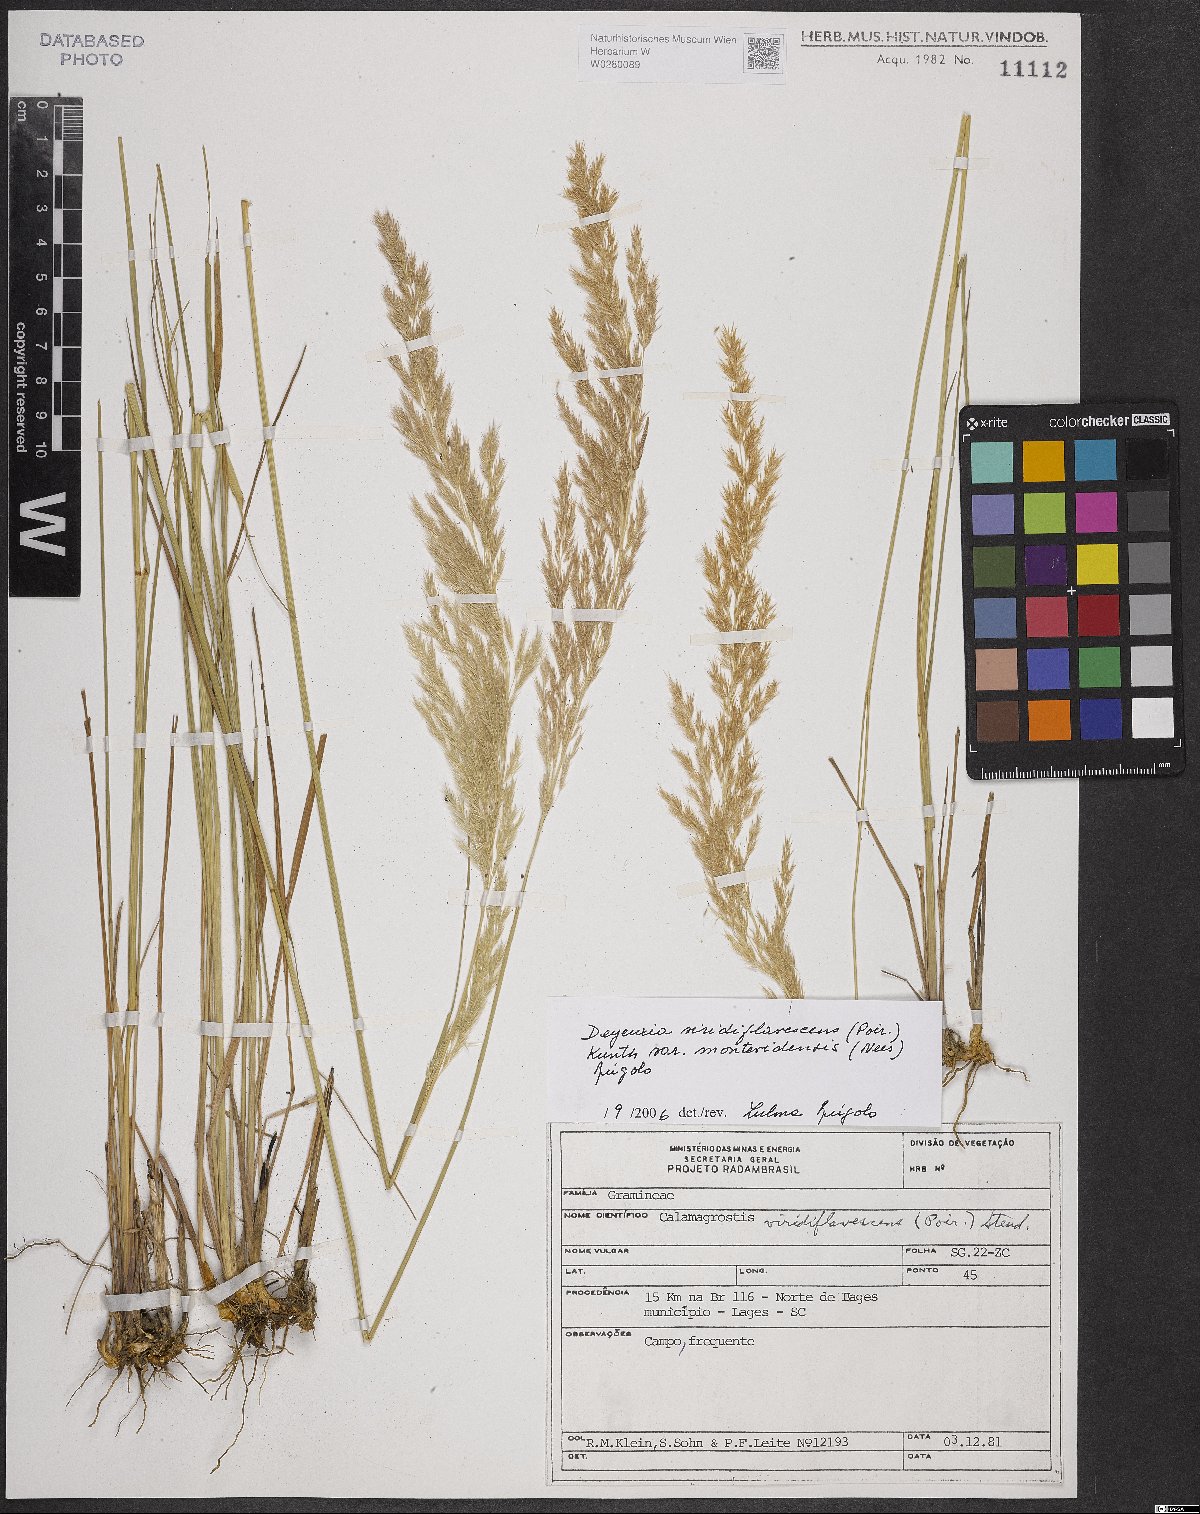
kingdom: Plantae
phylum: Tracheophyta
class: Liliopsida
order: Poales
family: Poaceae
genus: Cinnagrostis
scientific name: Cinnagrostis viridiflavescens
